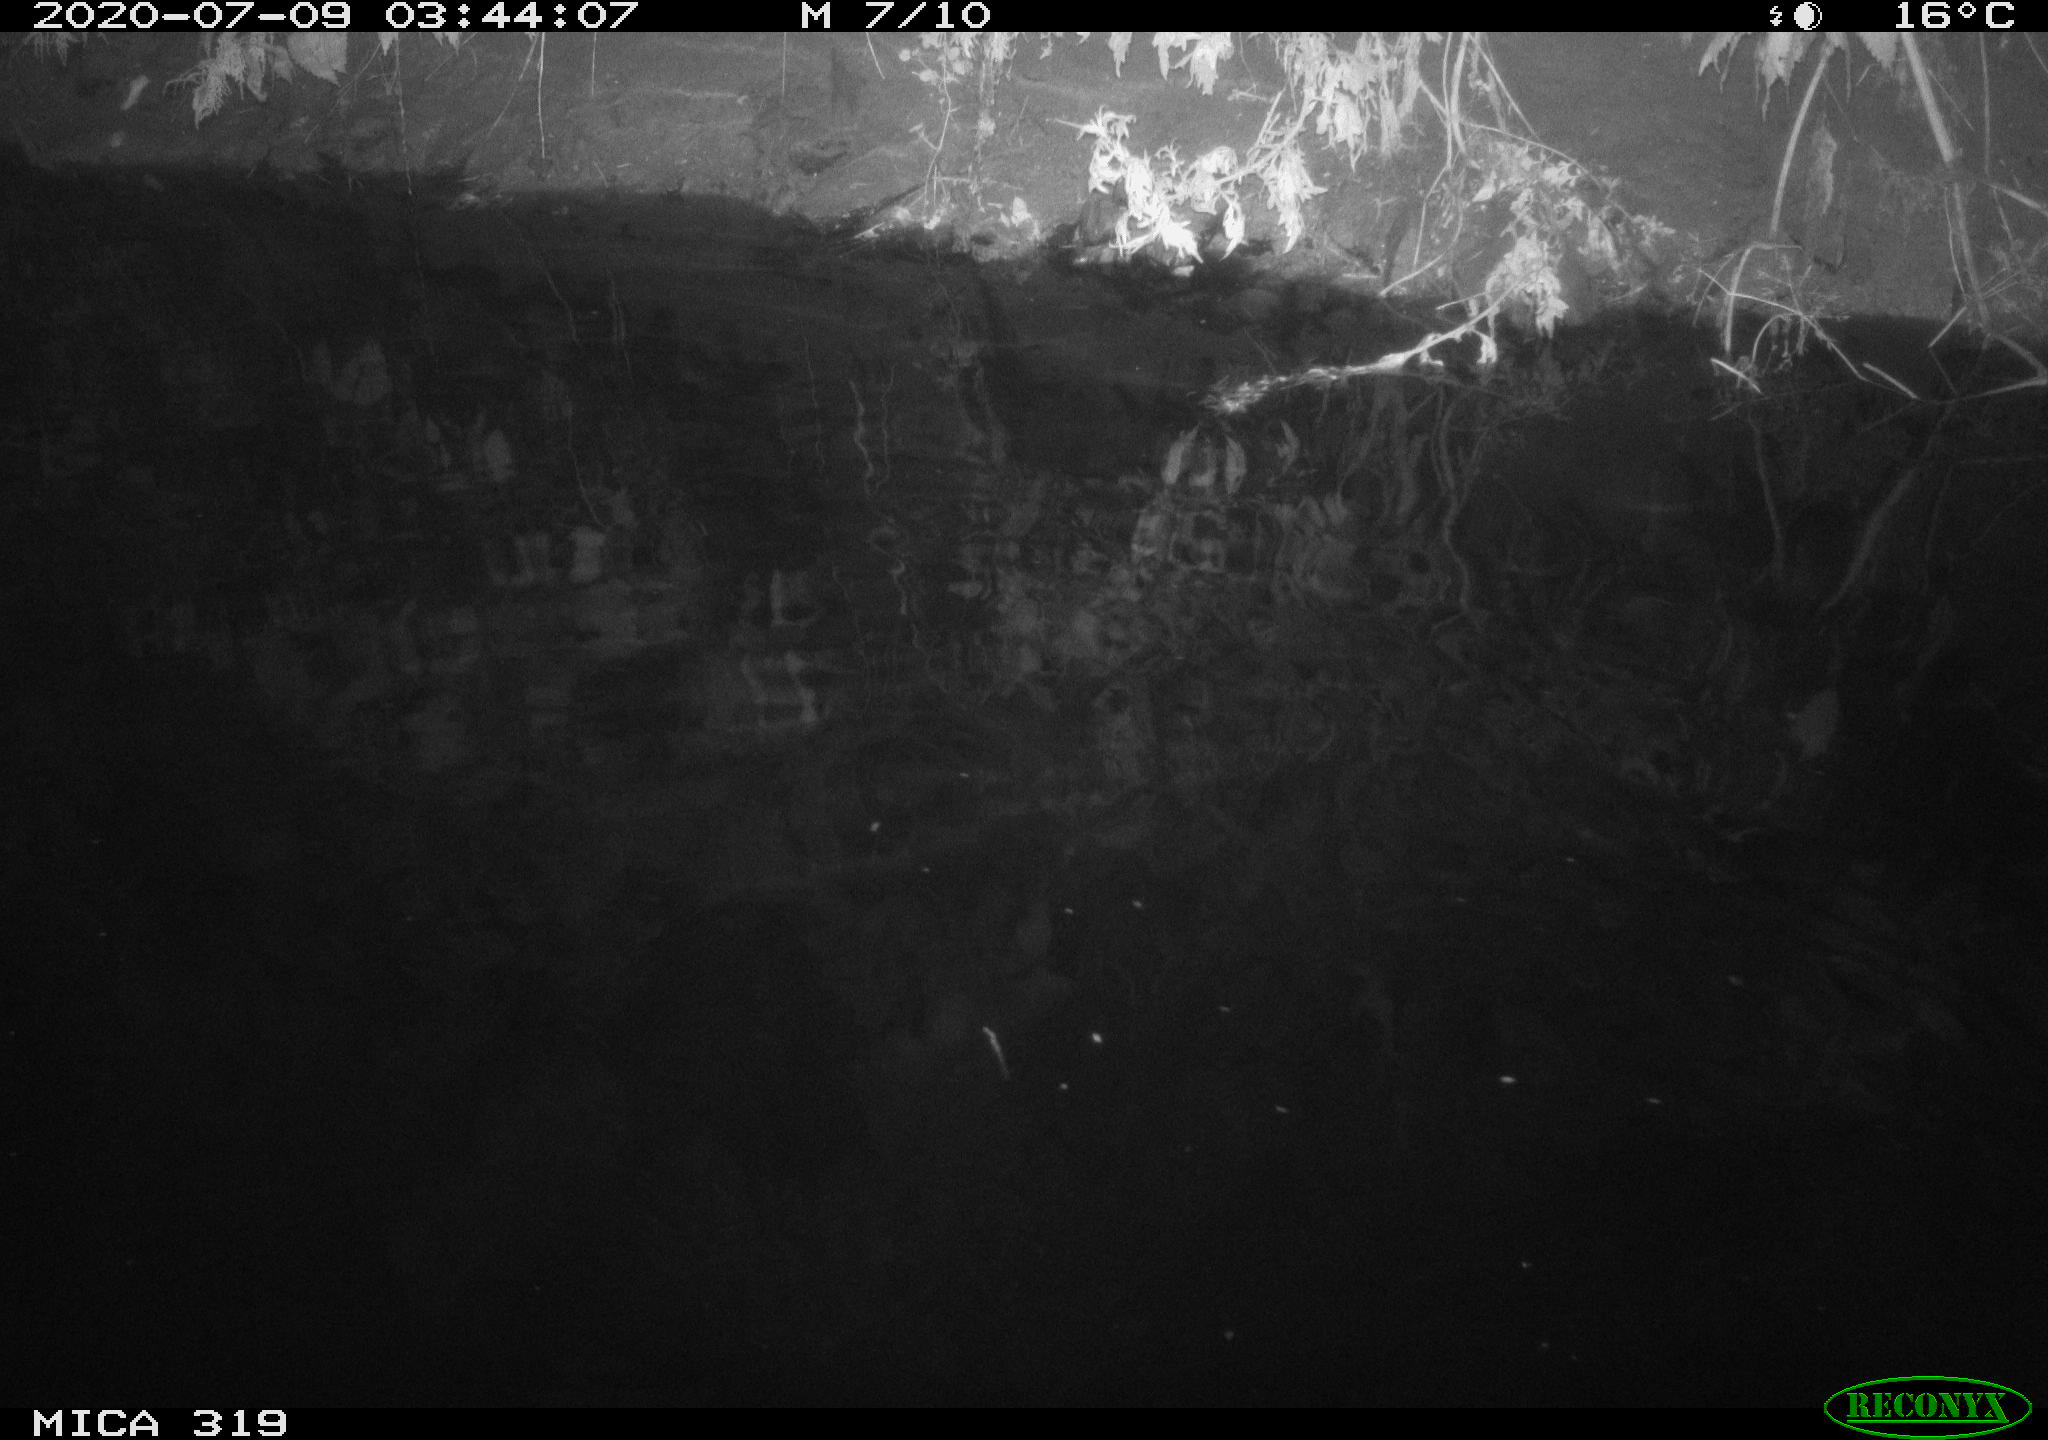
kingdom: Animalia
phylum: Chordata
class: Aves
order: Anseriformes
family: Anatidae
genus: Anas
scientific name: Anas platyrhynchos
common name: Mallard
